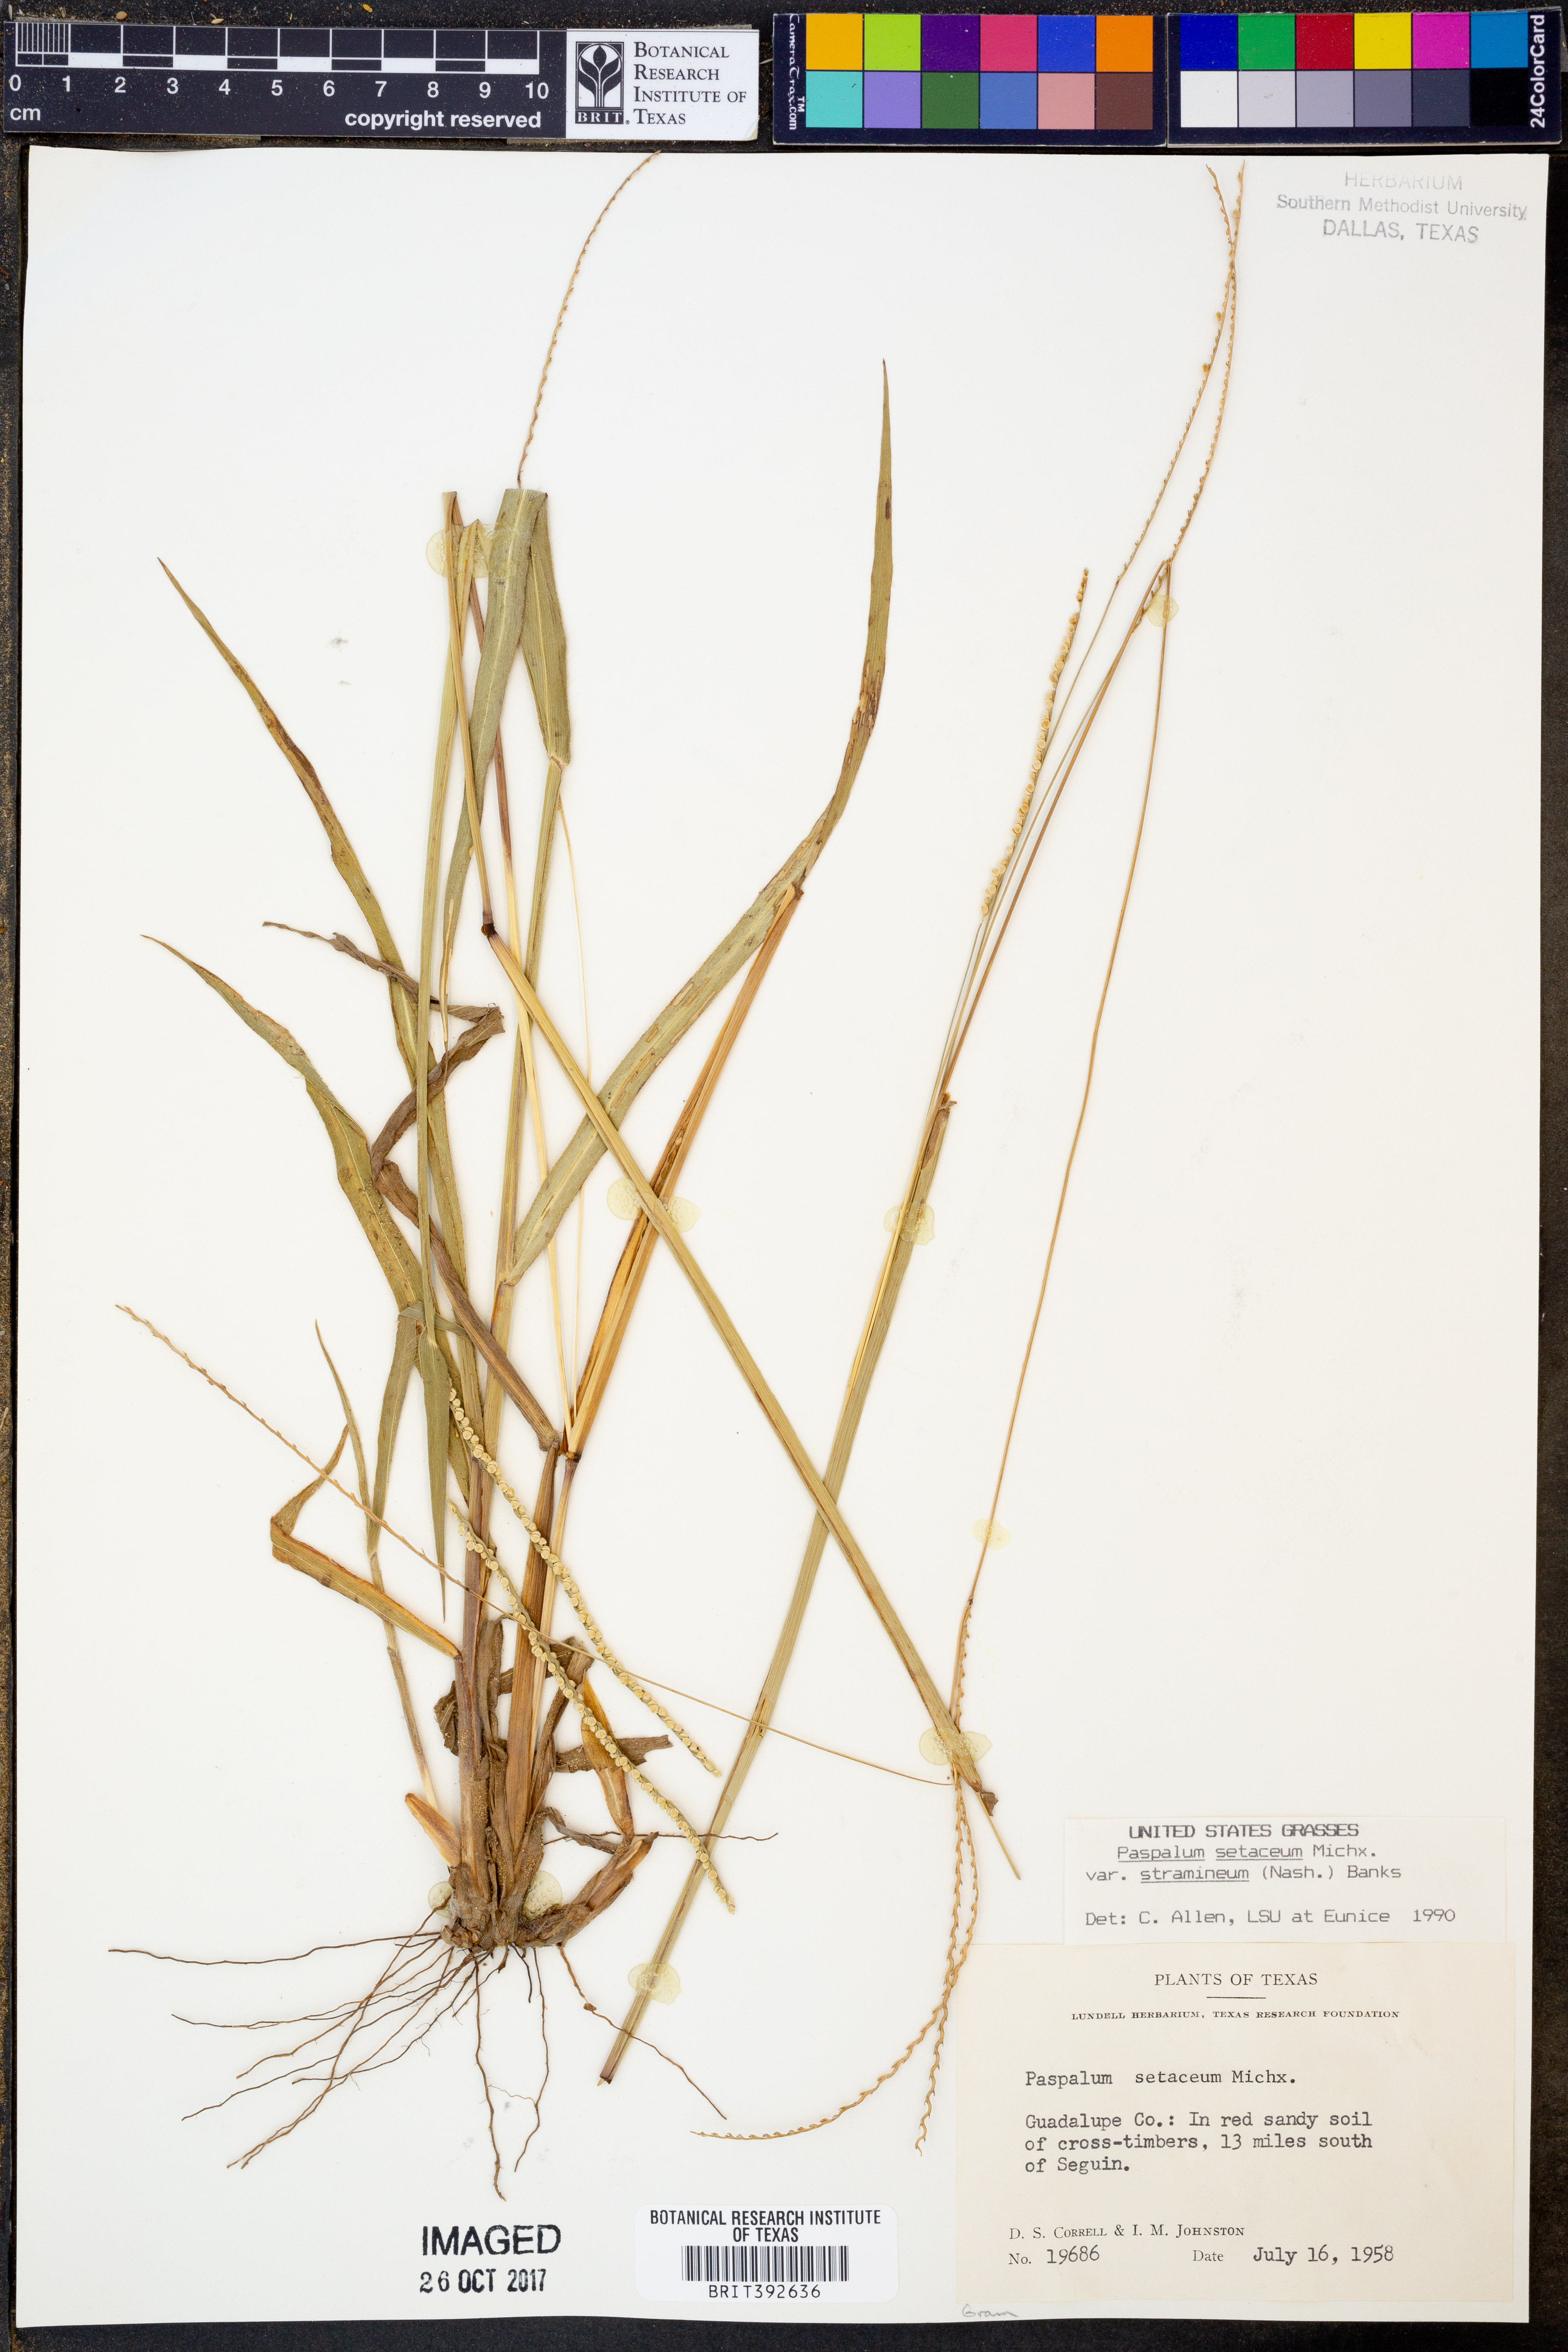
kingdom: Plantae
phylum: Tracheophyta
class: Liliopsida
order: Poales
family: Poaceae
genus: Paspalum
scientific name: Paspalum setaceum
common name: Slender paspalum
